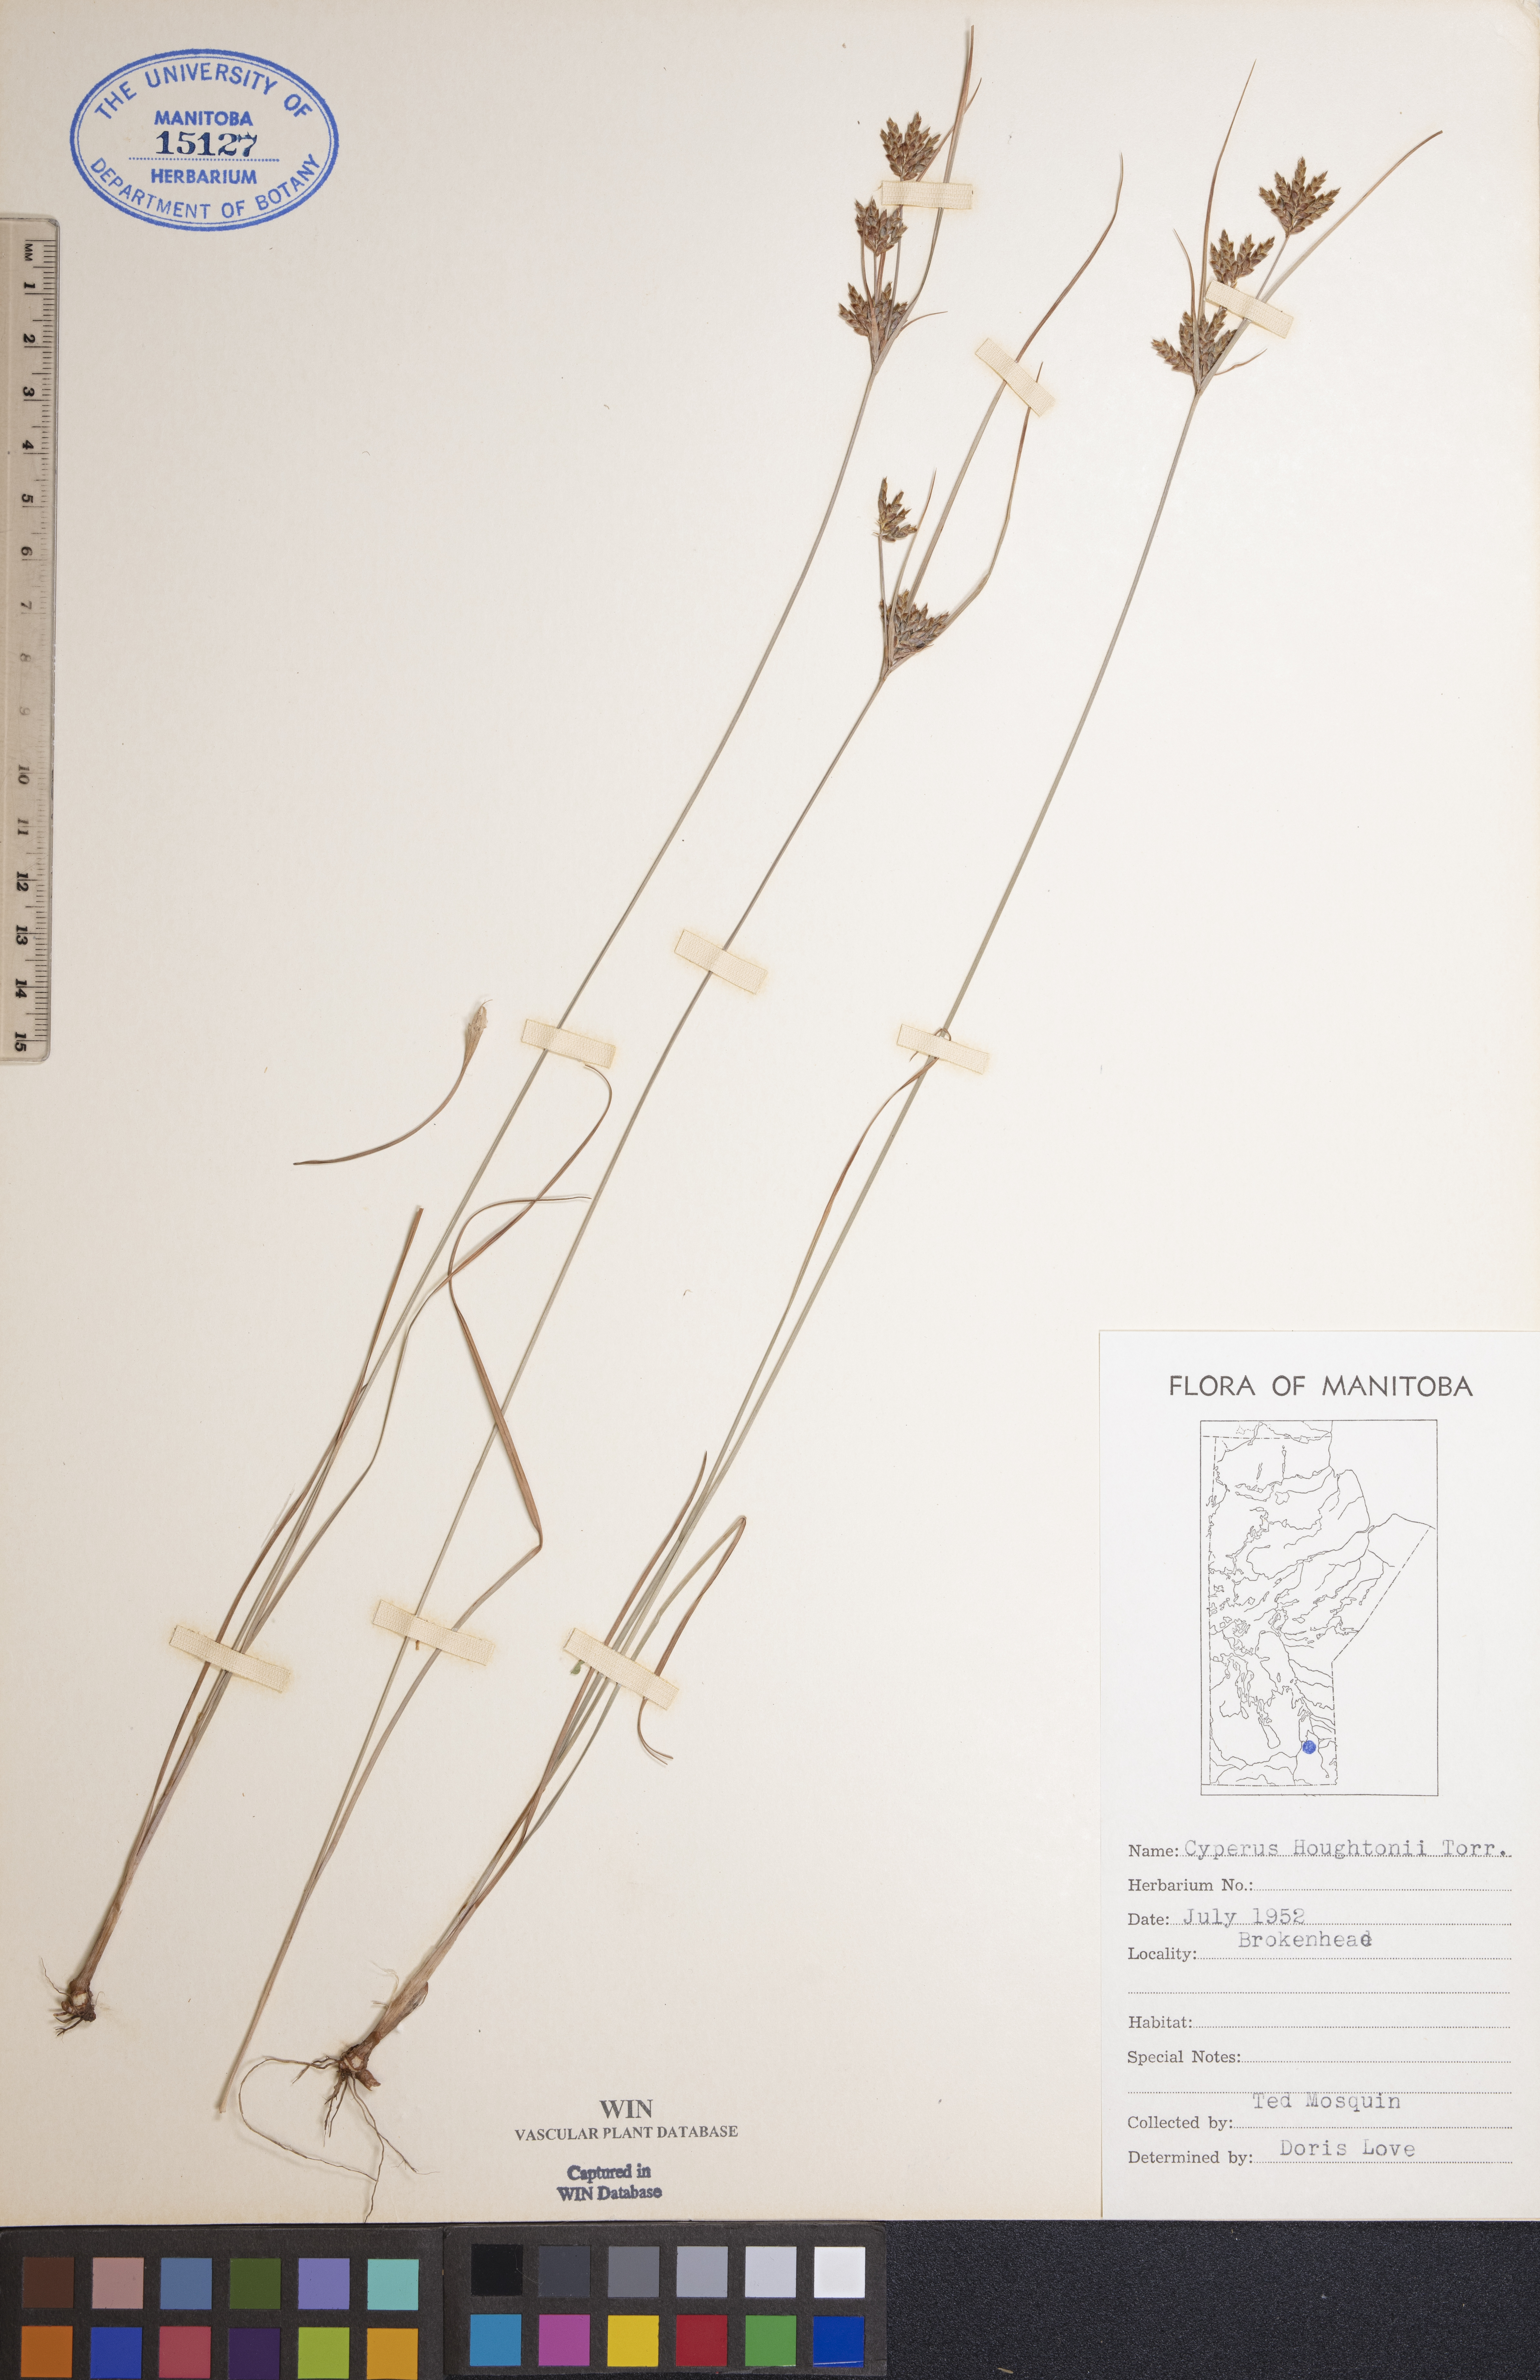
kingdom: Plantae
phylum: Tracheophyta
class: Liliopsida
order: Poales
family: Cyperaceae
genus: Cyperus
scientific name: Cyperus houghtonii
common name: Houghton's cyperus
